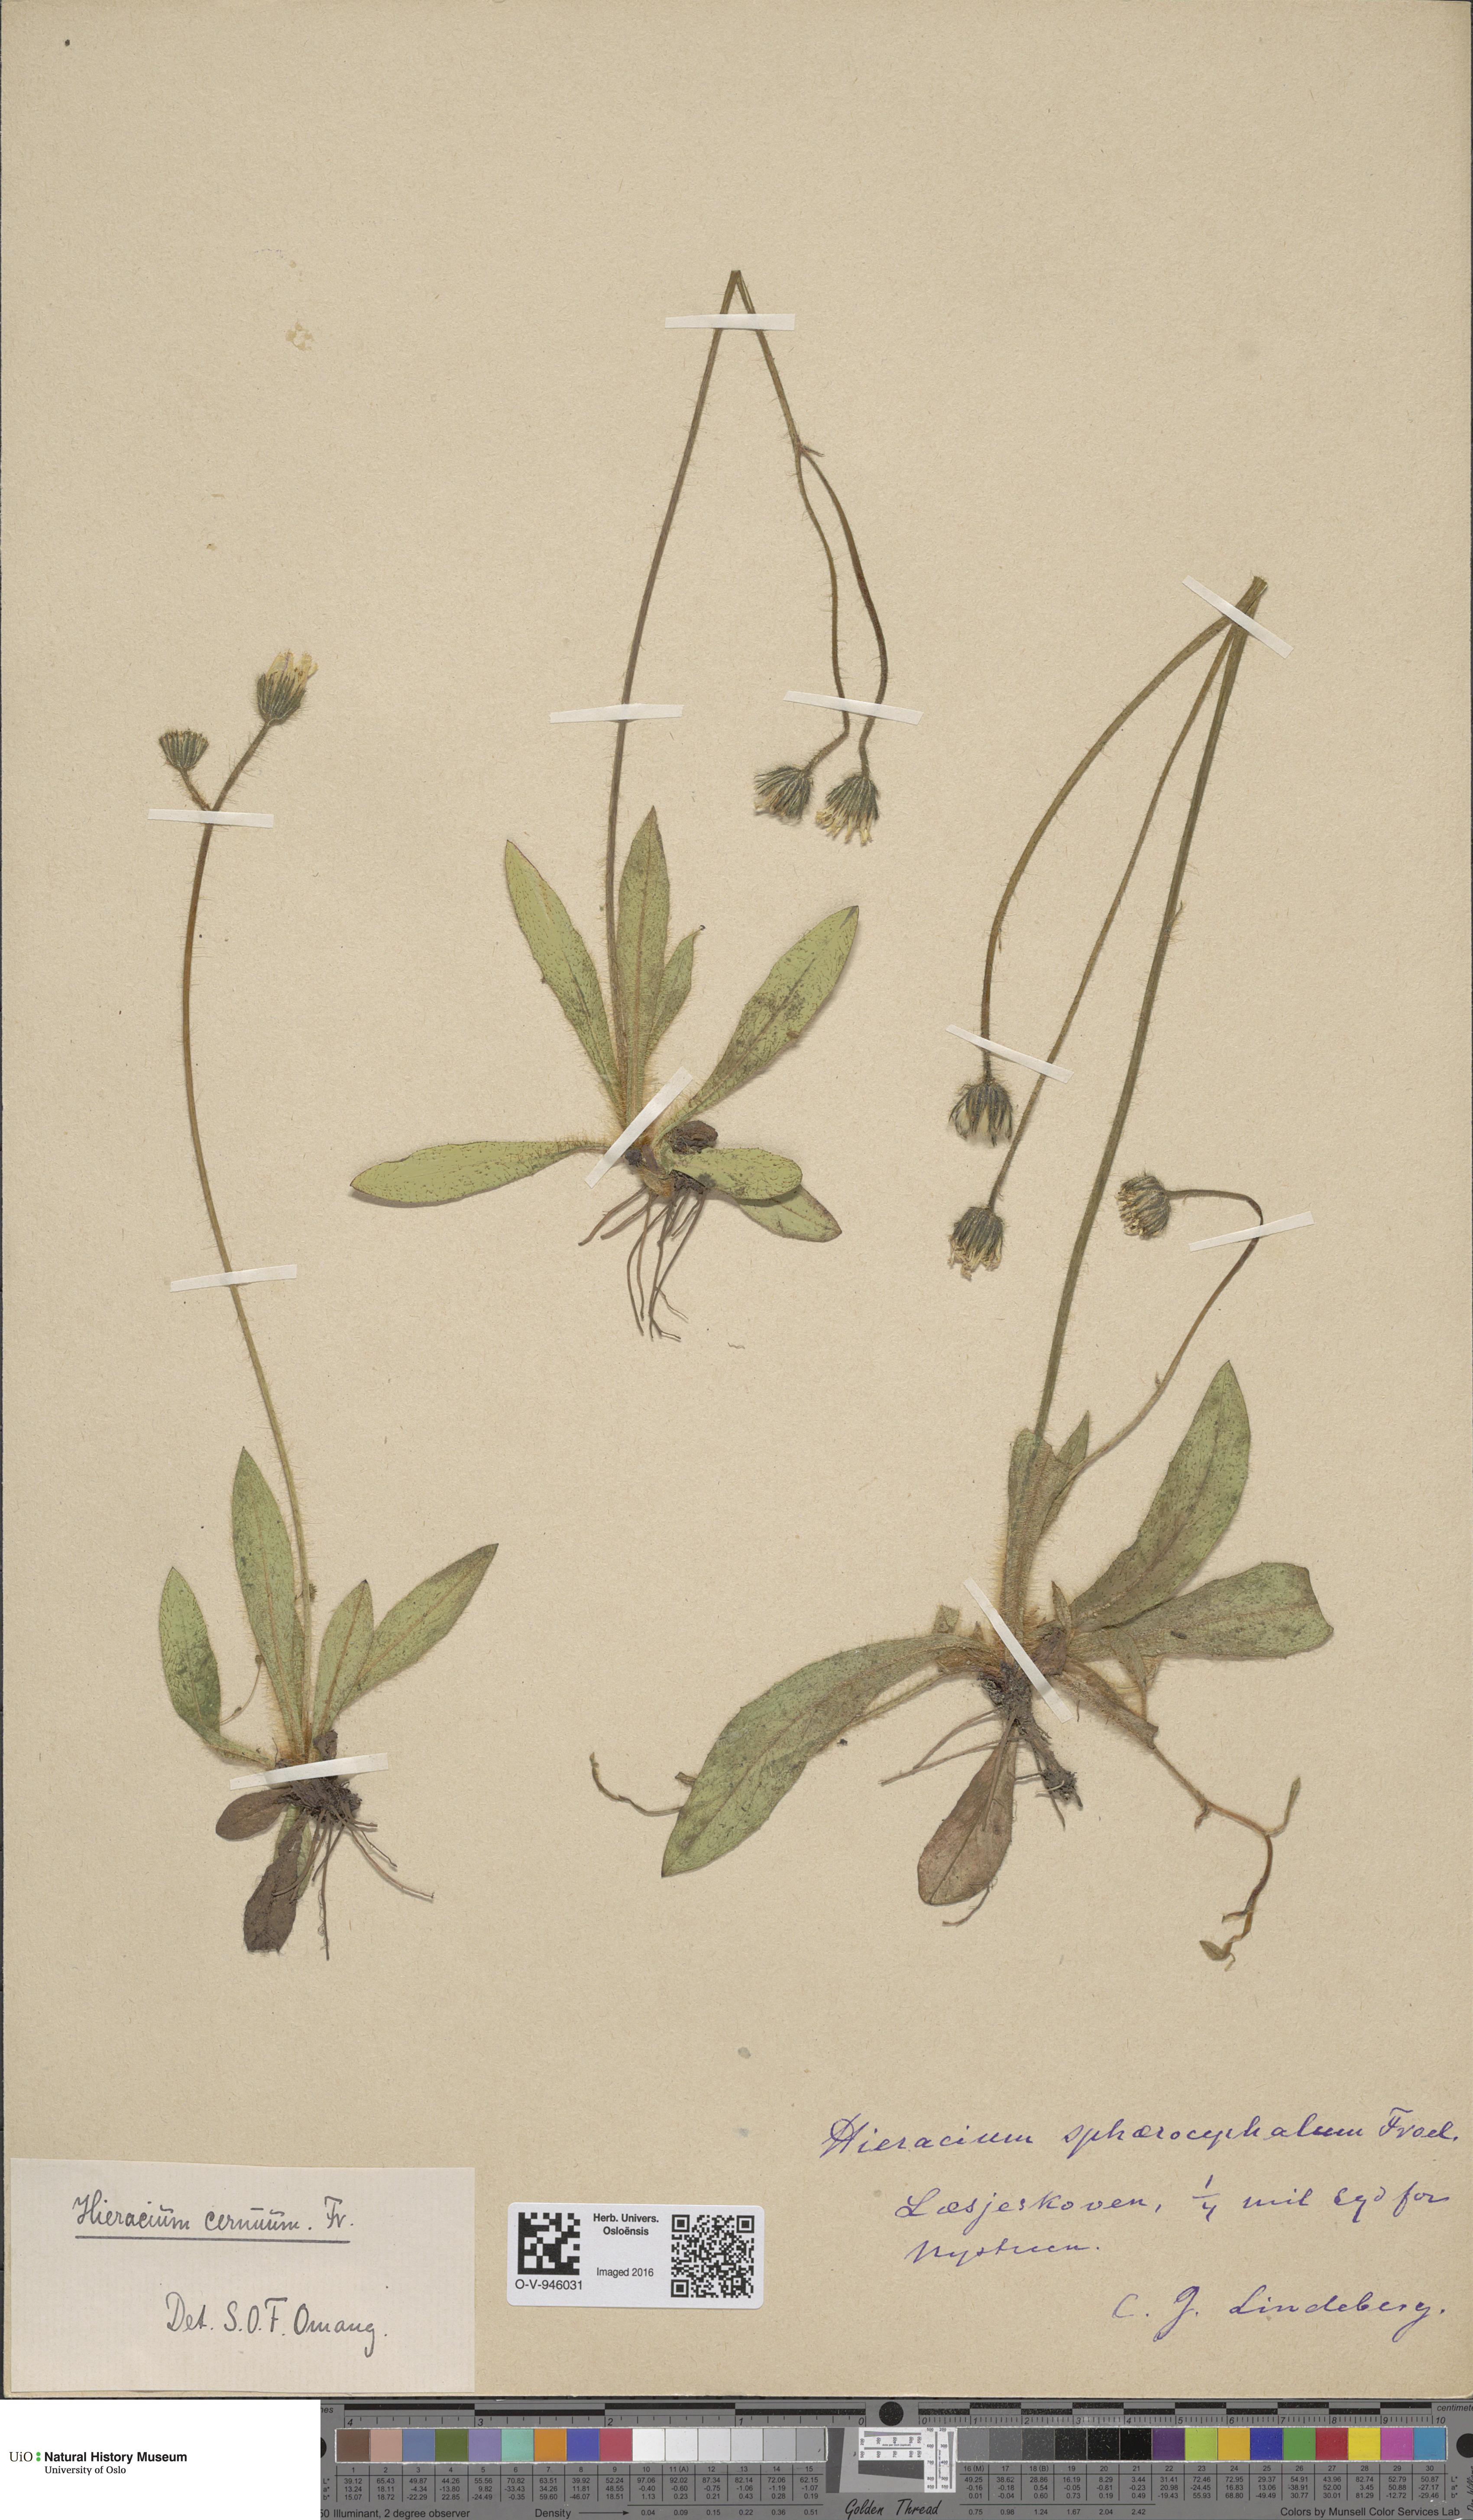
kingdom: Plantae
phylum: Tracheophyta
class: Magnoliopsida
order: Asterales
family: Asteraceae
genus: Pilosella
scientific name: Pilosella peteriana
